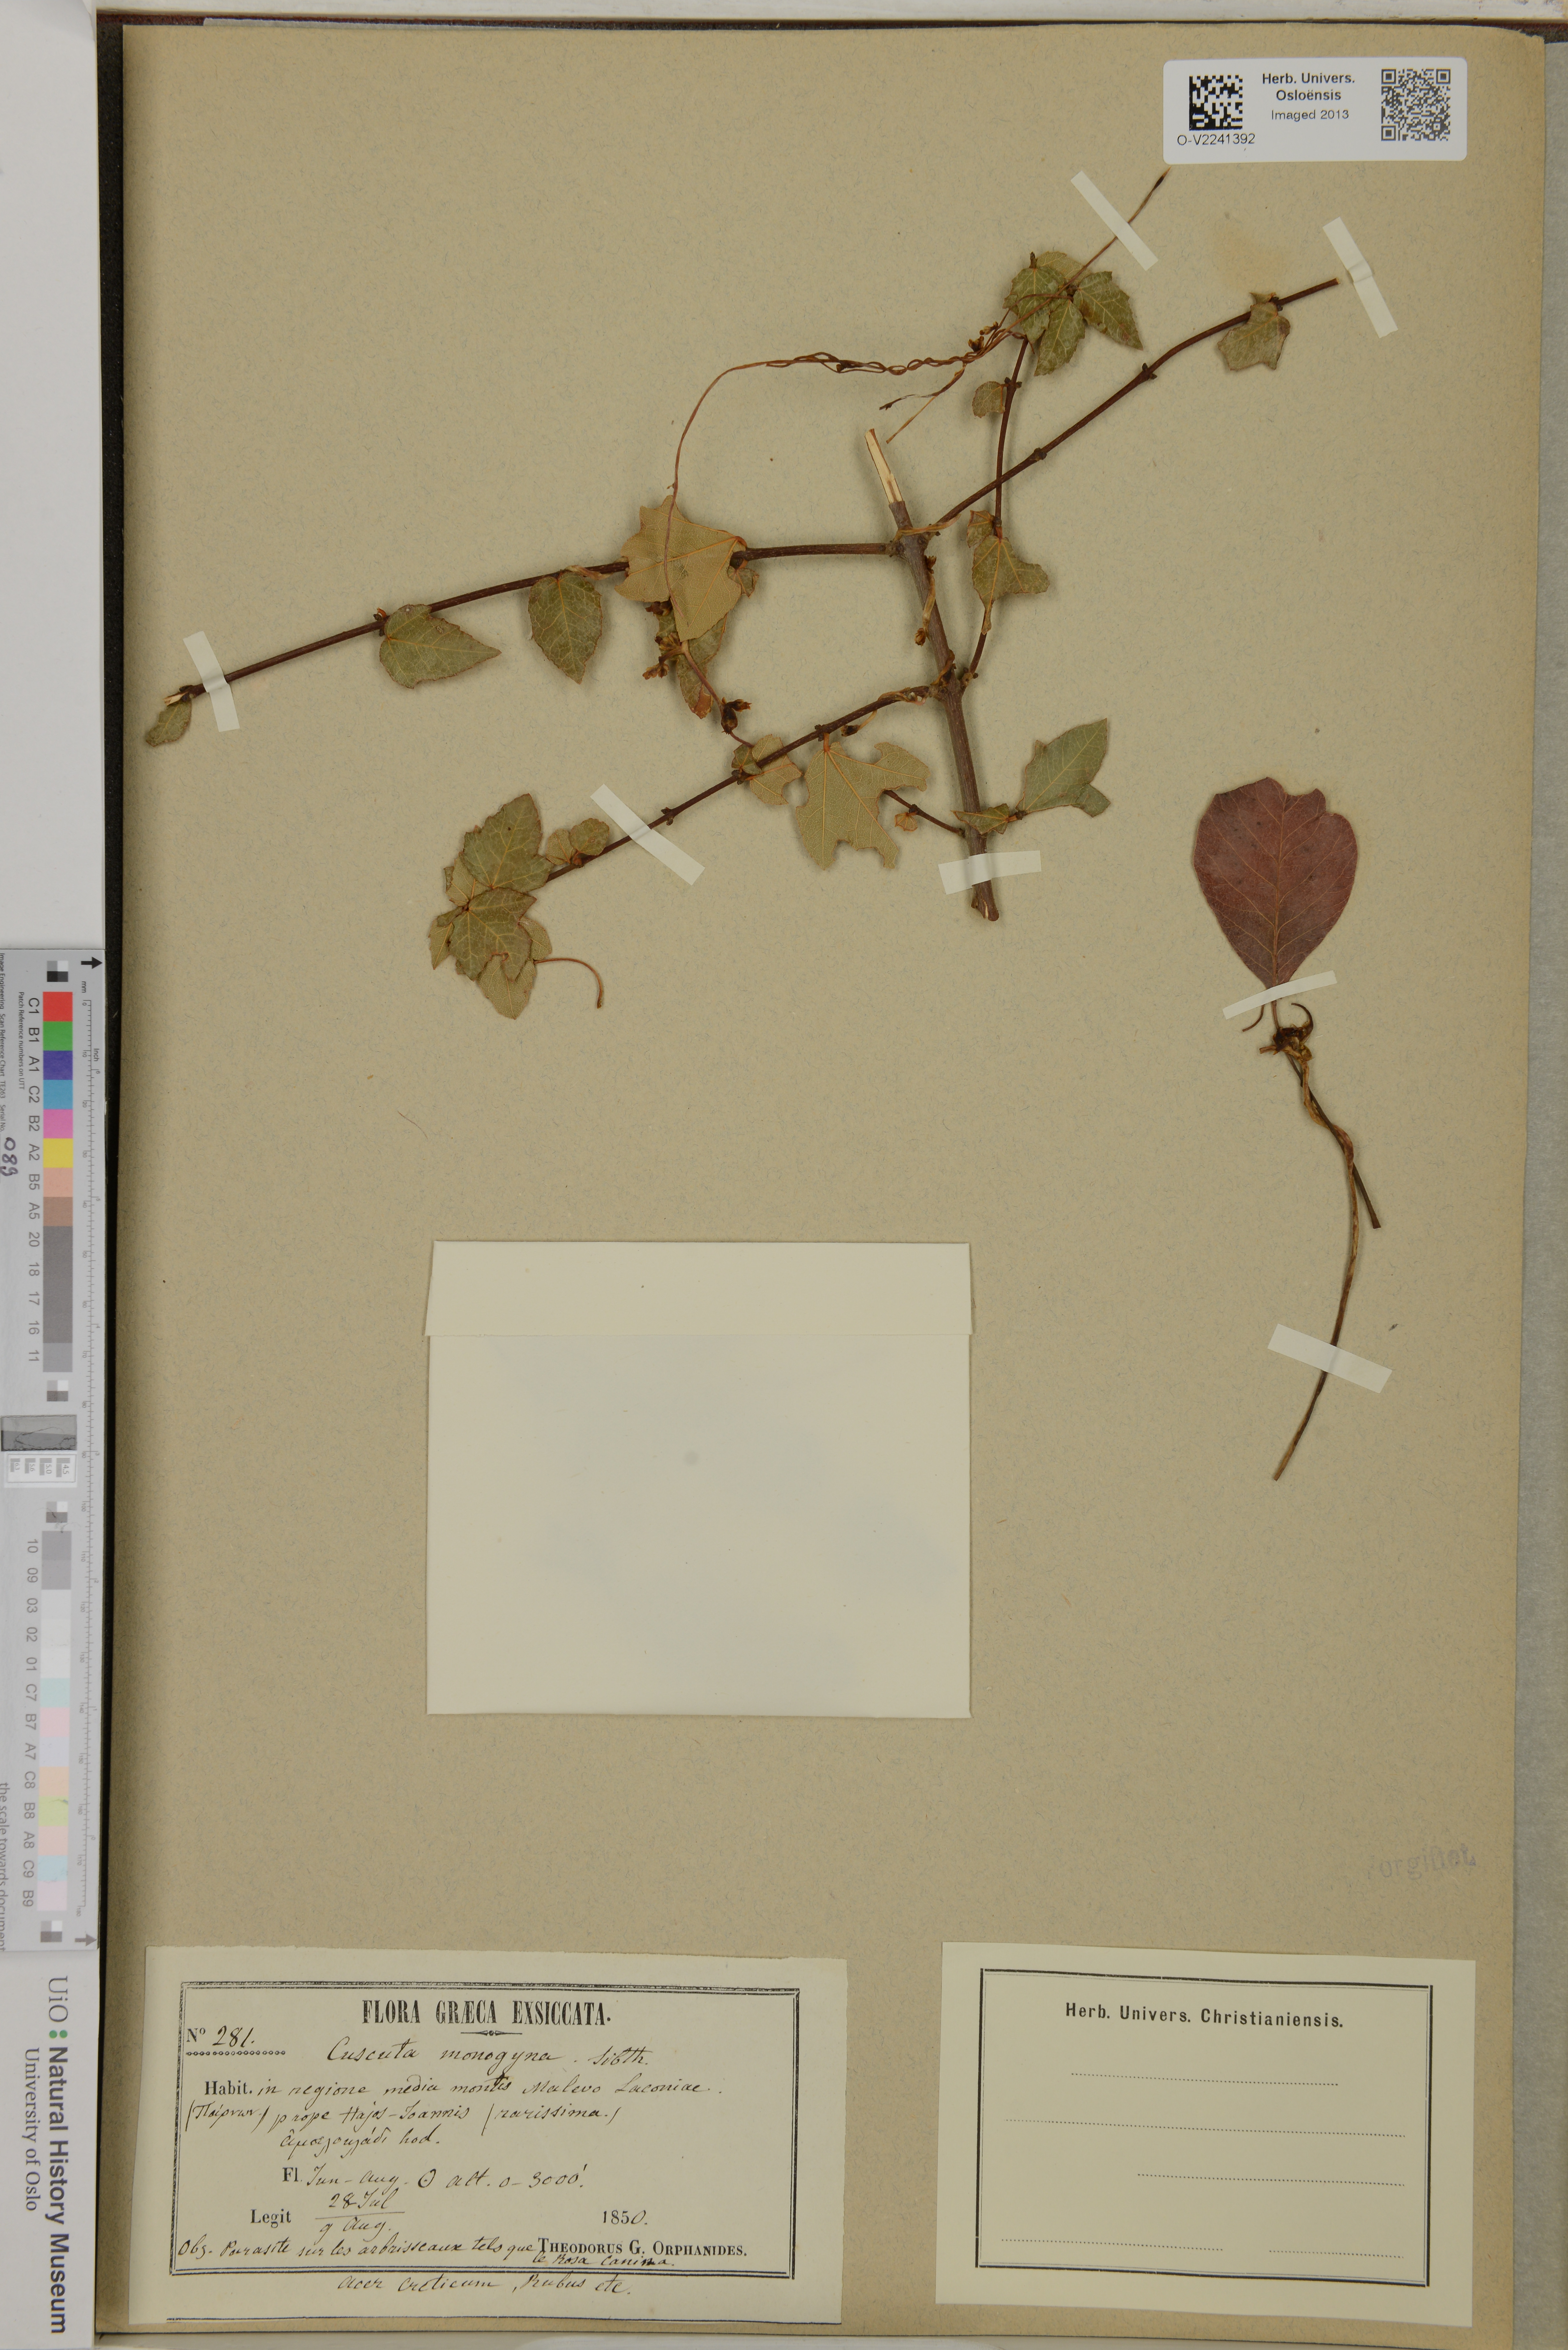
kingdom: Plantae
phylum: Tracheophyta
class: Magnoliopsida
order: Solanales
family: Convolvulaceae
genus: Cuscuta
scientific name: Cuscuta monogyna
